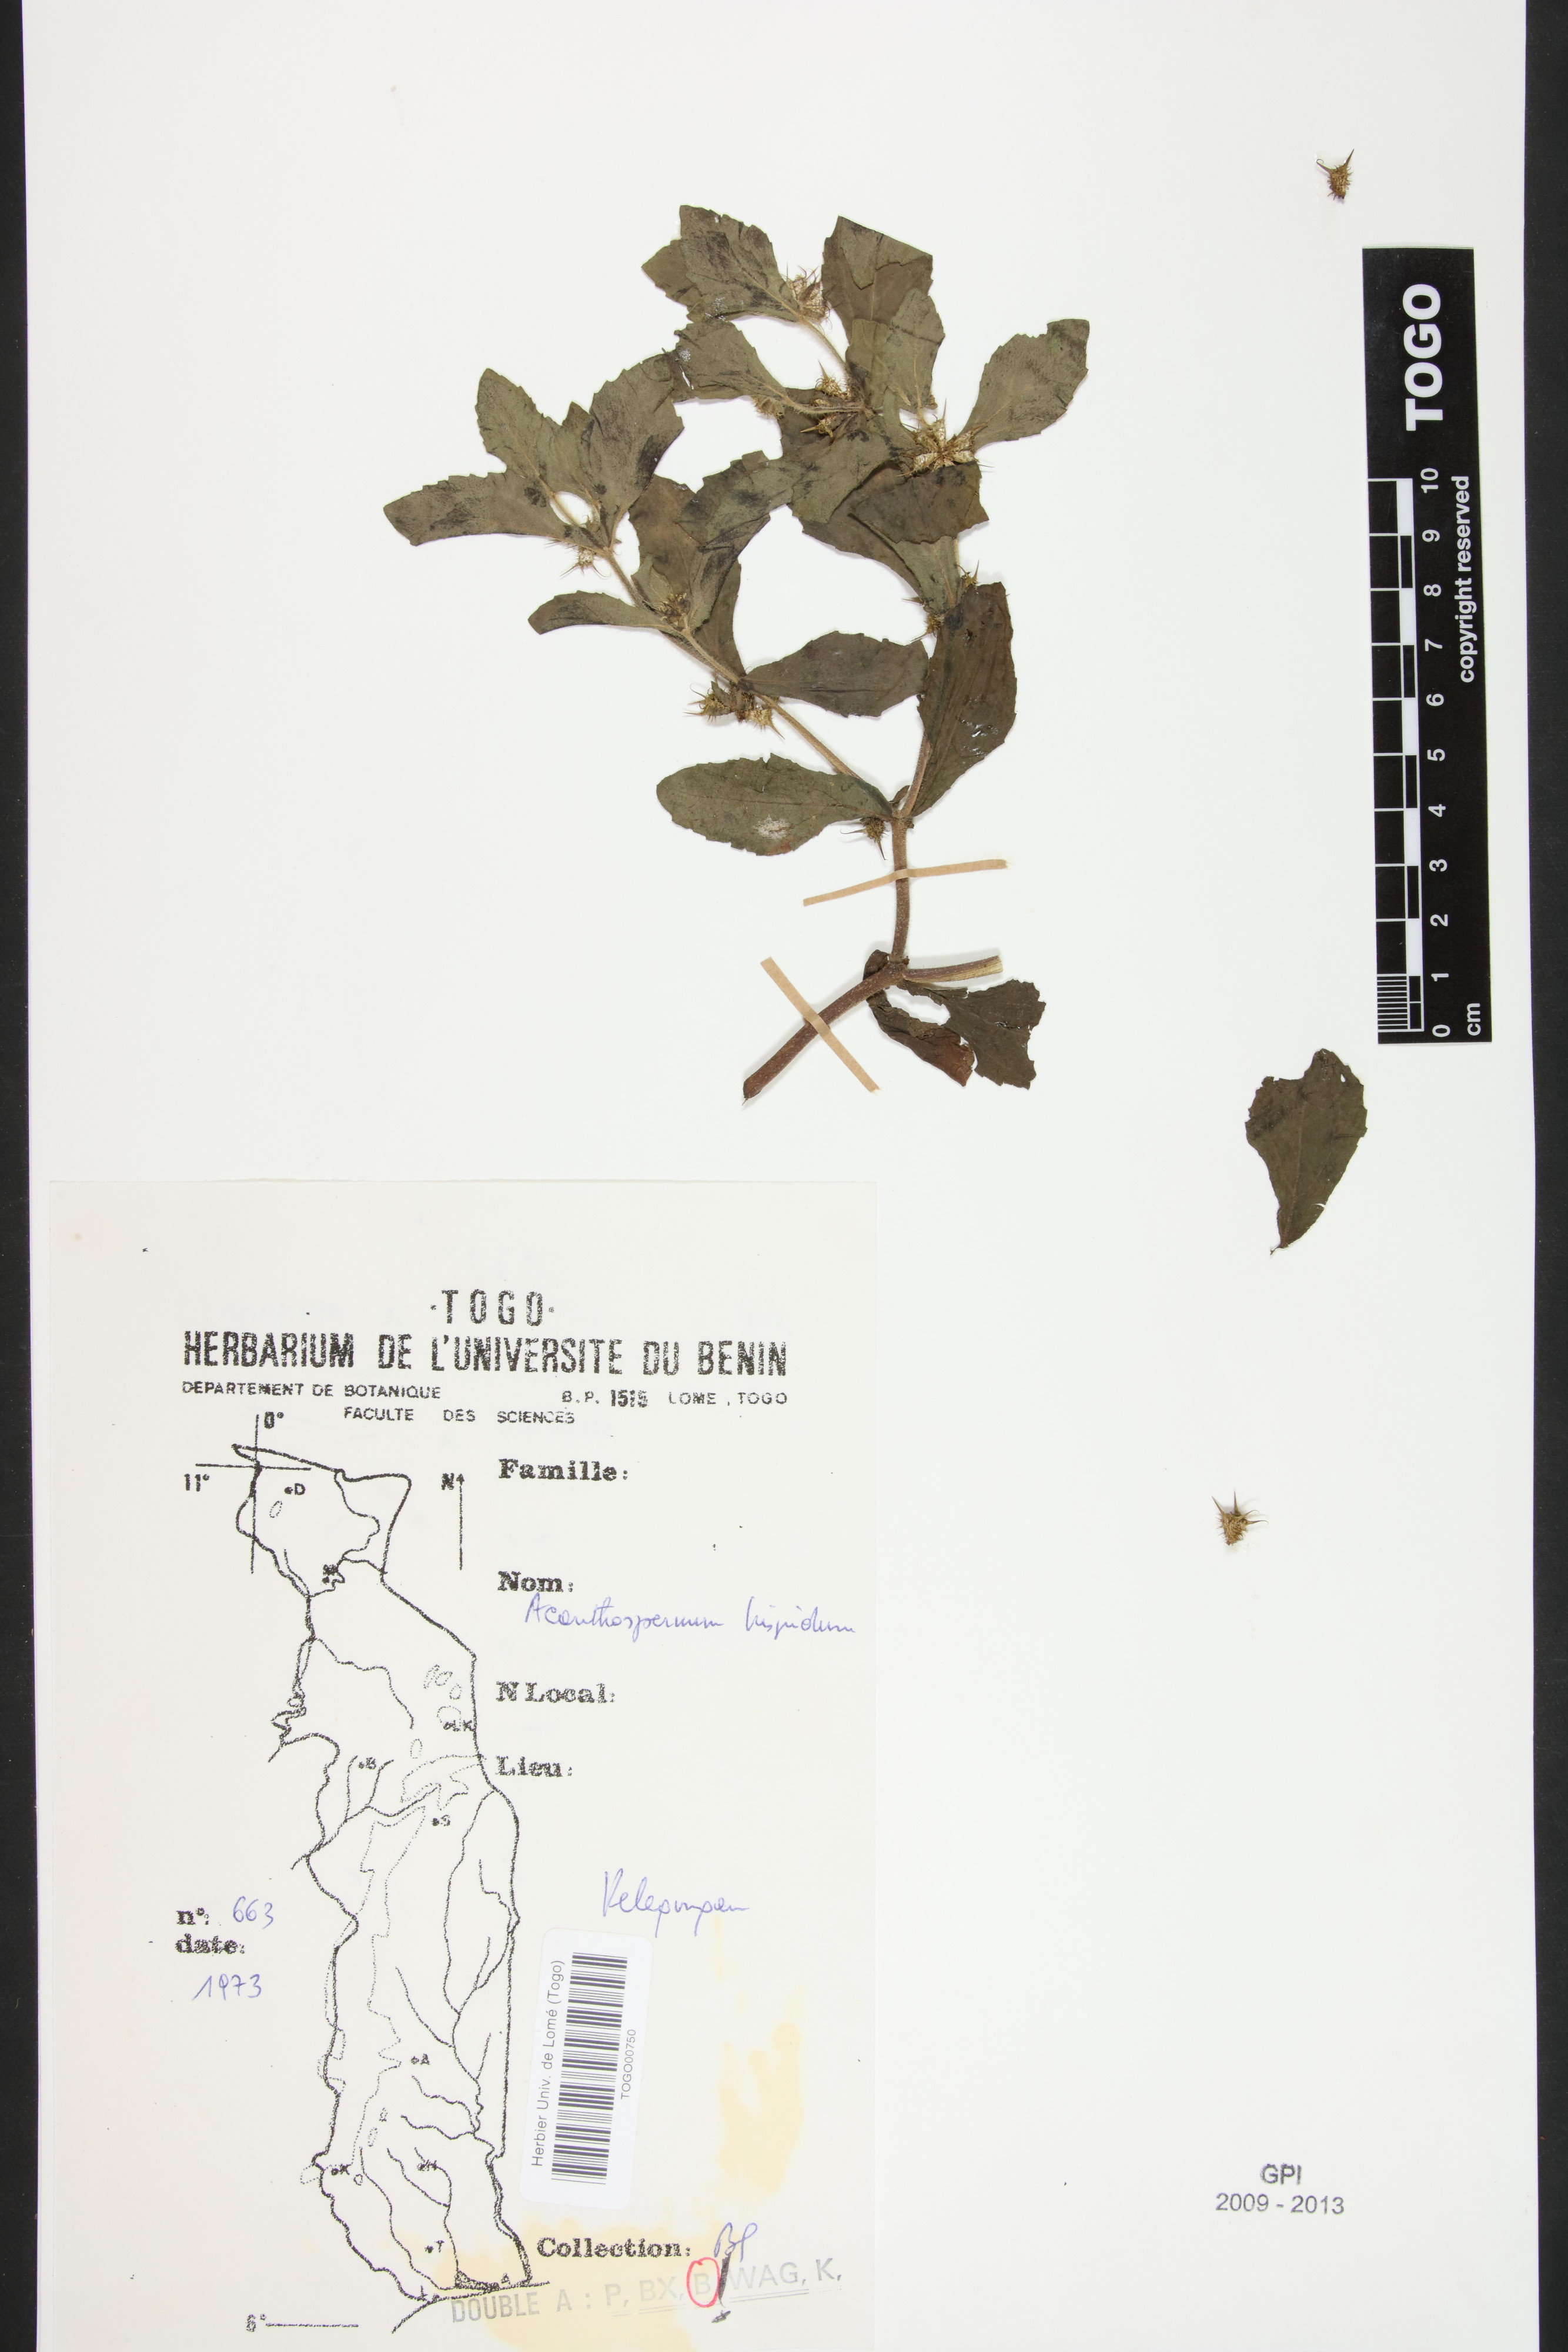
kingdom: Plantae
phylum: Tracheophyta
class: Magnoliopsida
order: Asterales
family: Asteraceae
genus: Acanthospermum
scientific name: Acanthospermum hispidum
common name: Hispid starbur
